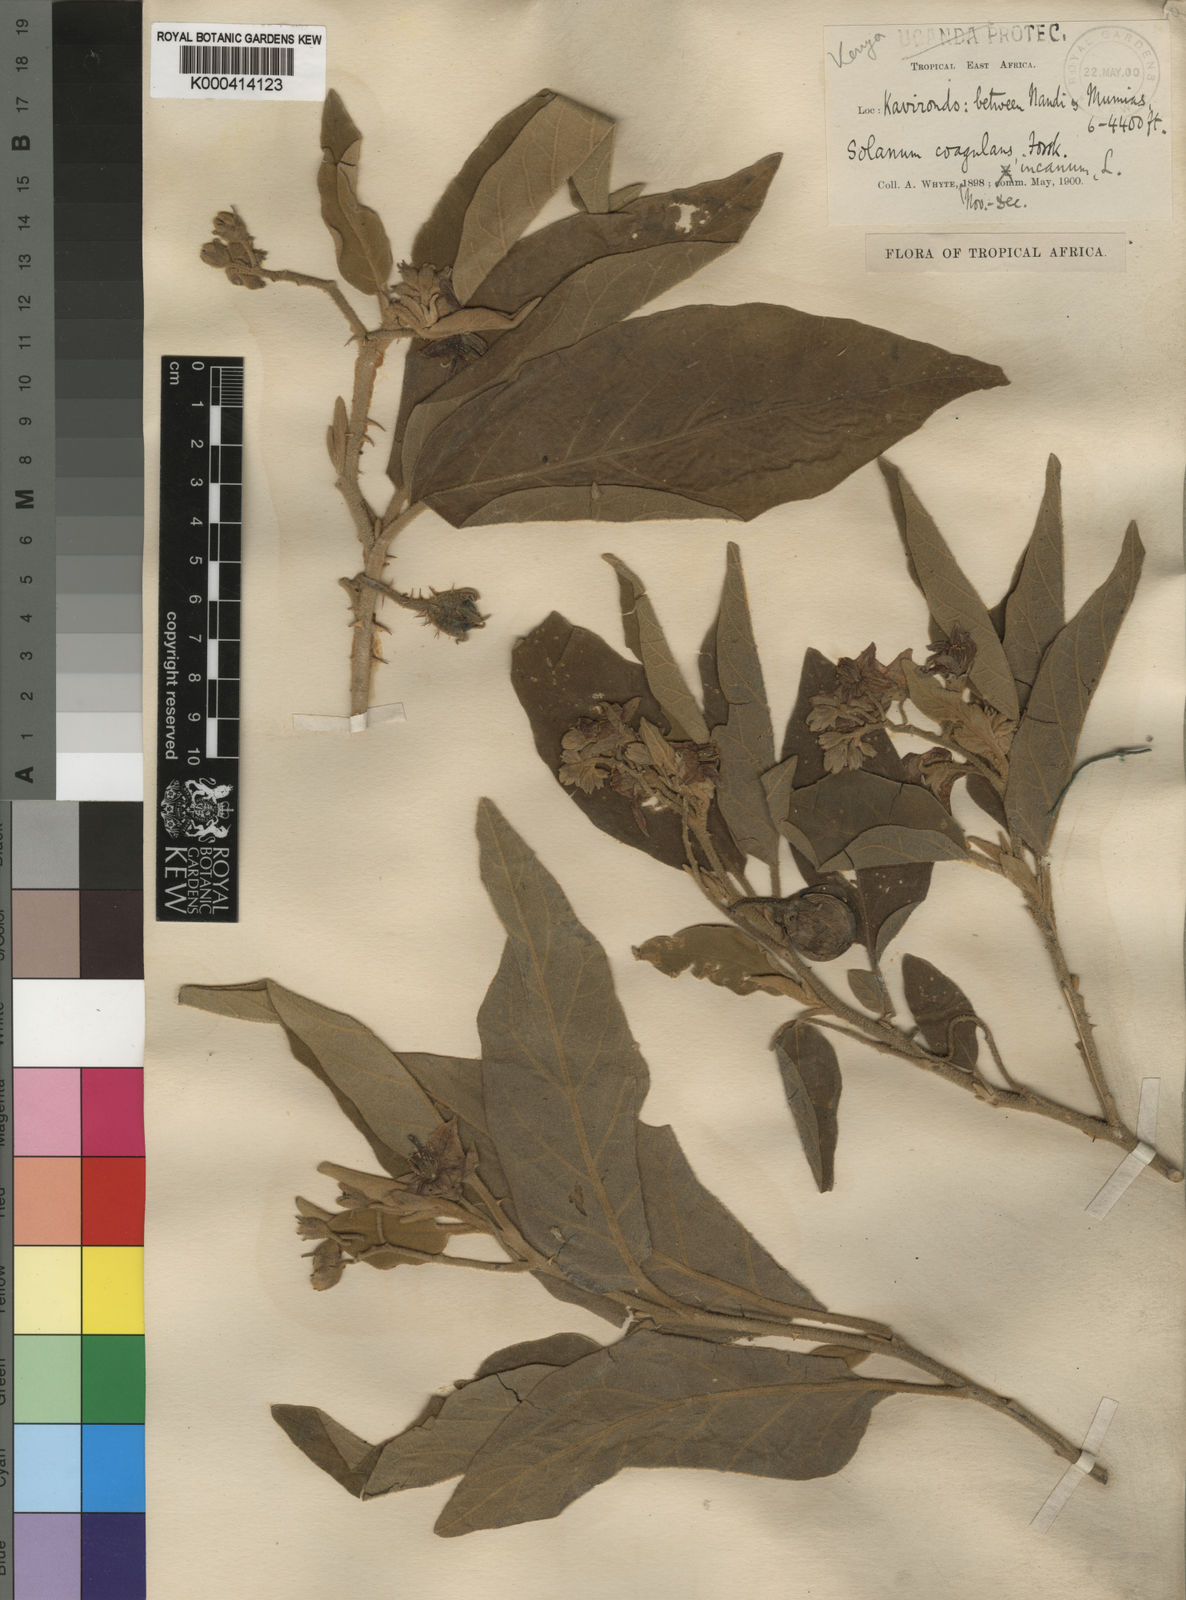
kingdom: Plantae
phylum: Tracheophyta
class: Magnoliopsida
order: Solanales
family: Solanaceae
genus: Solanum
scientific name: Solanum incanum
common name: Bitter apple
